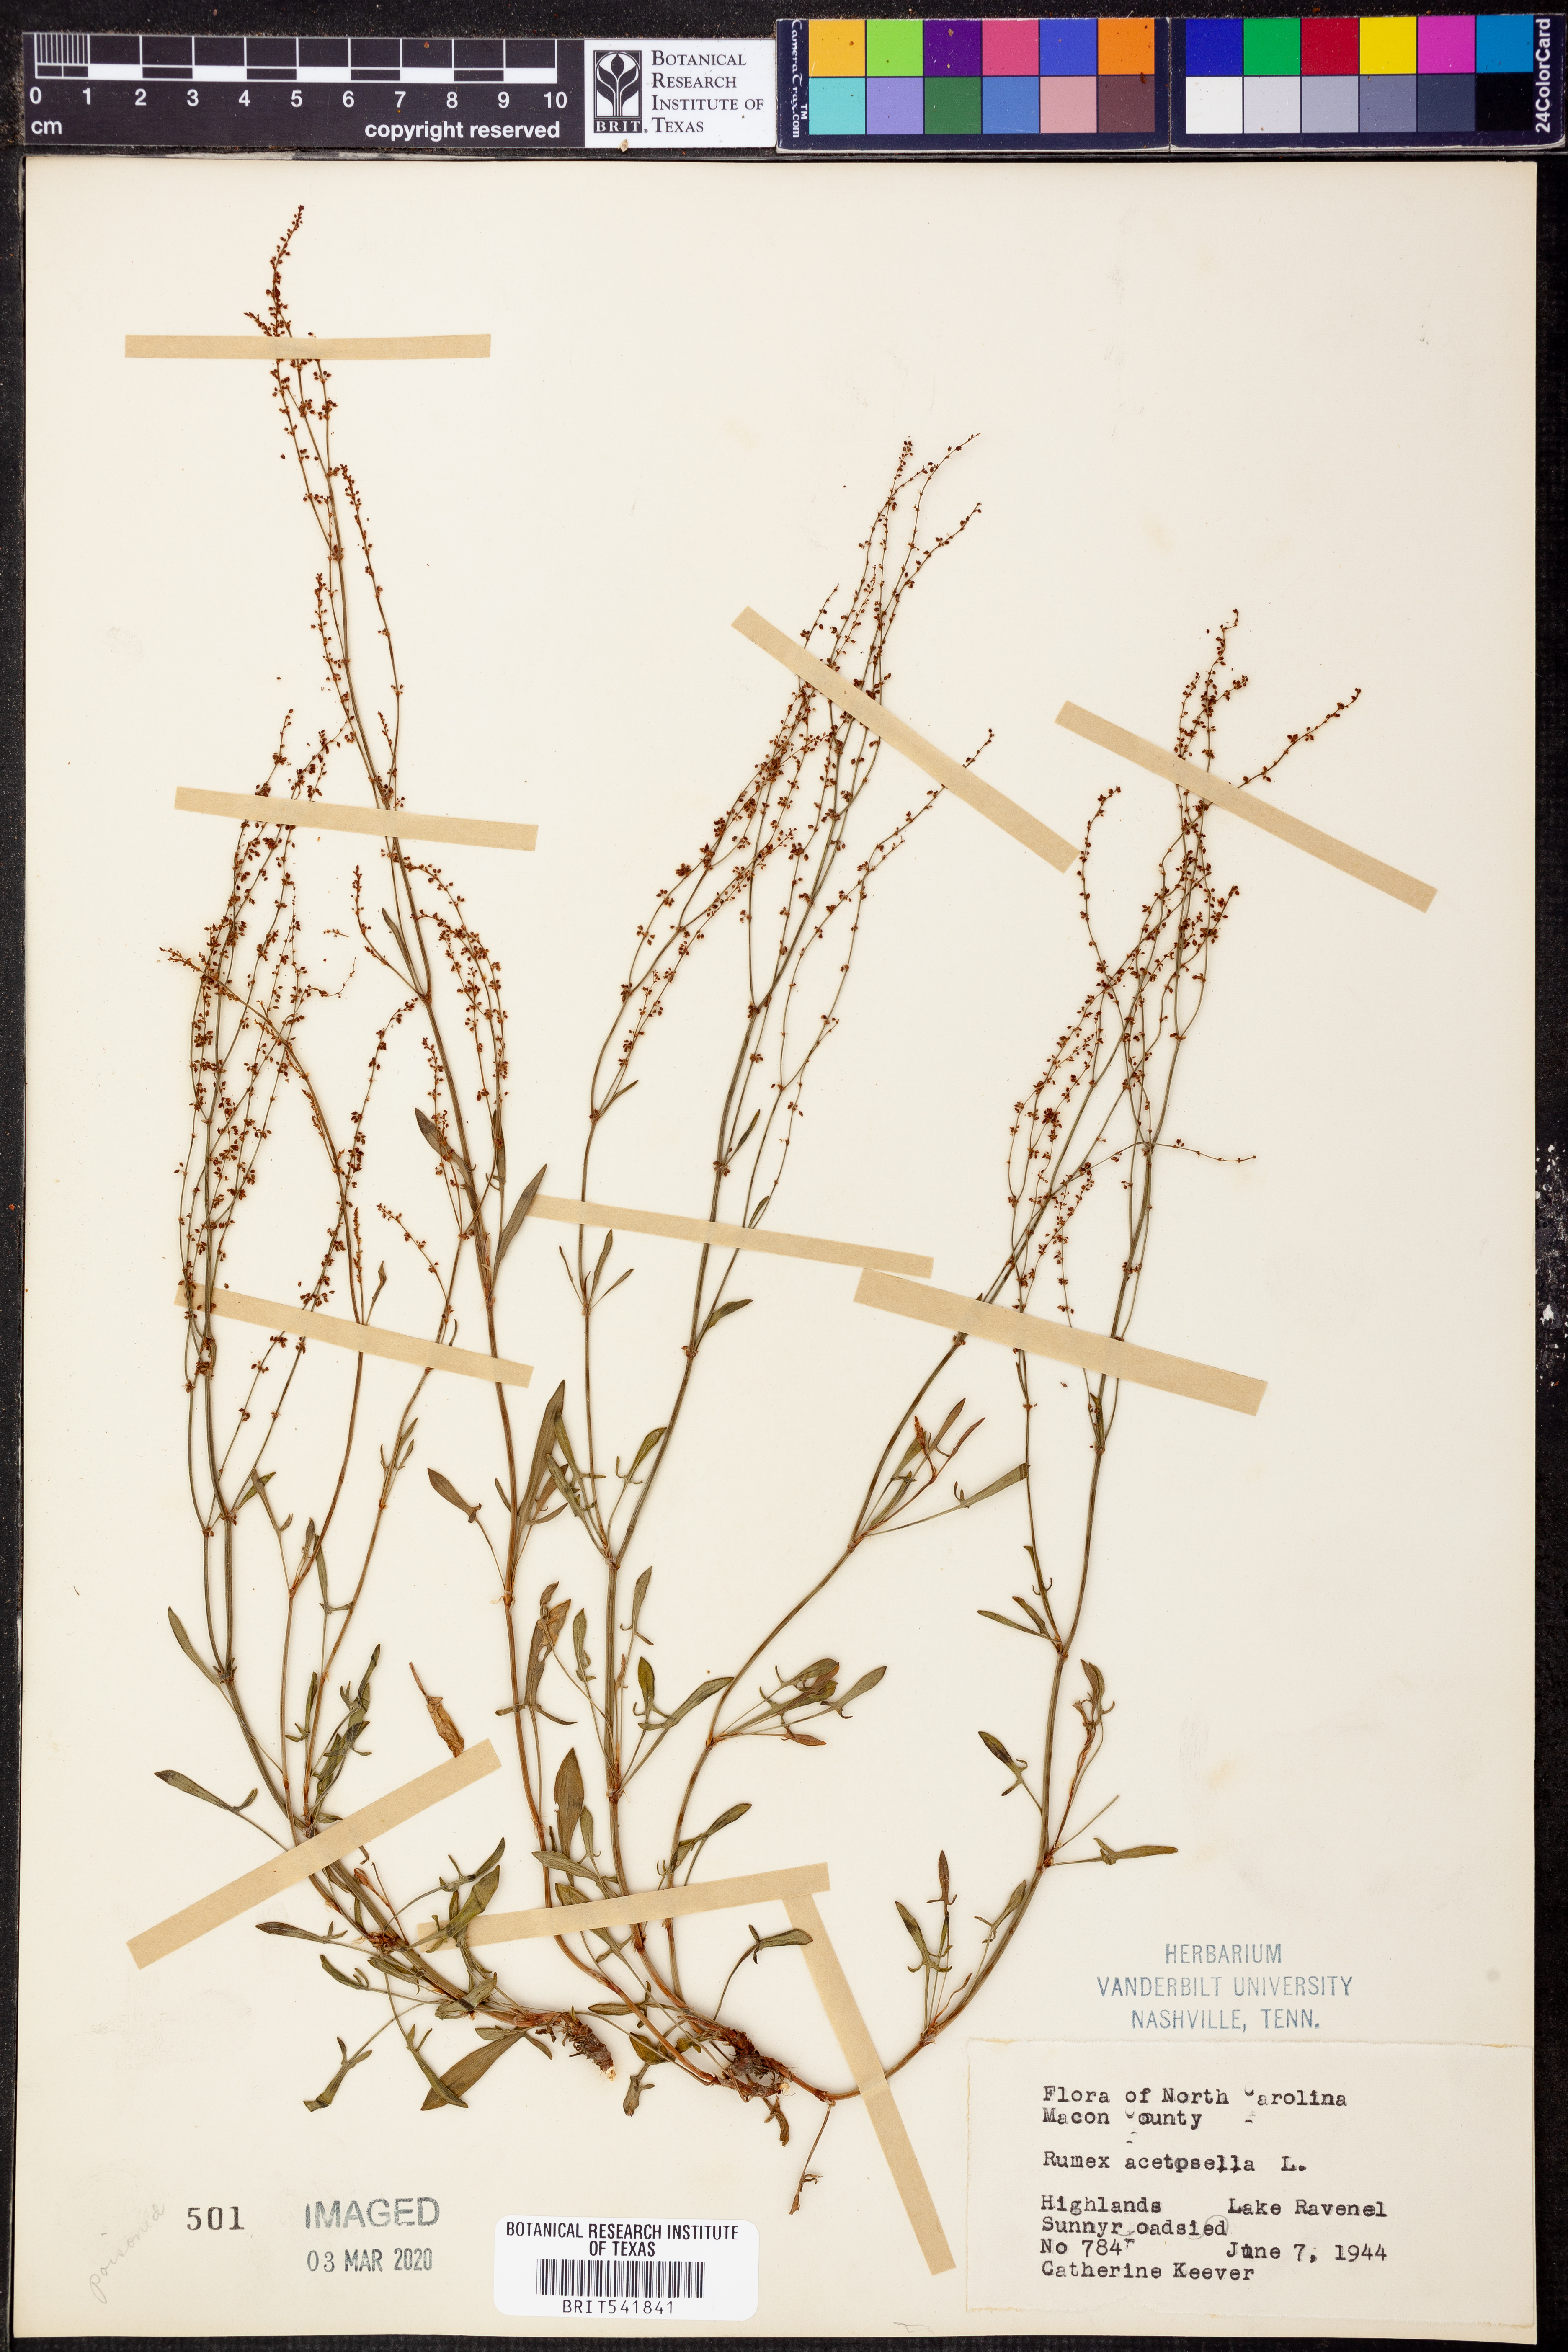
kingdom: Plantae
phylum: Tracheophyta
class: Magnoliopsida
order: Caryophyllales
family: Polygonaceae
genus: Rumex
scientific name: Rumex acetosella
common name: Common sheep sorrel
